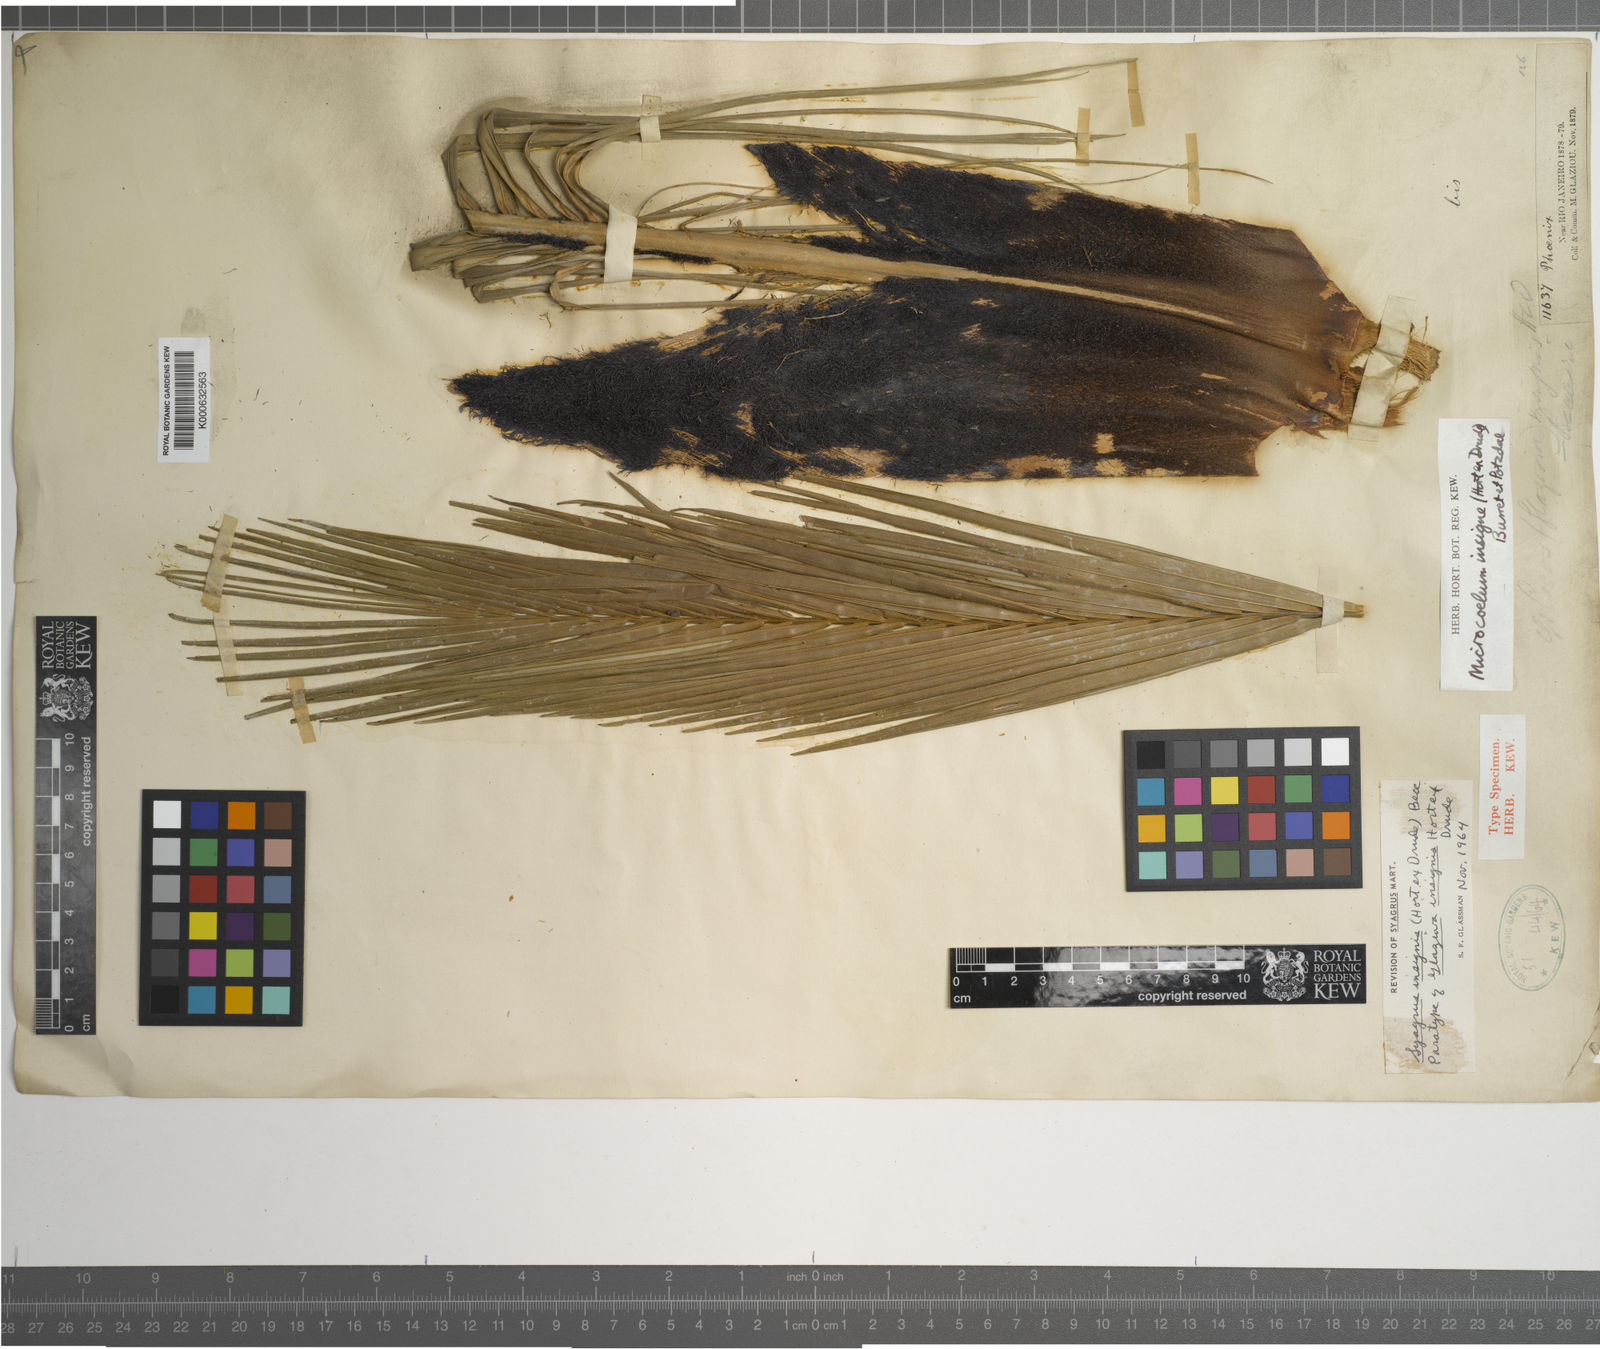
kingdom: Plantae
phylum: Tracheophyta
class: Liliopsida
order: Arecales
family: Arecaceae
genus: Syagrus
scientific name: Syagrus insignis
